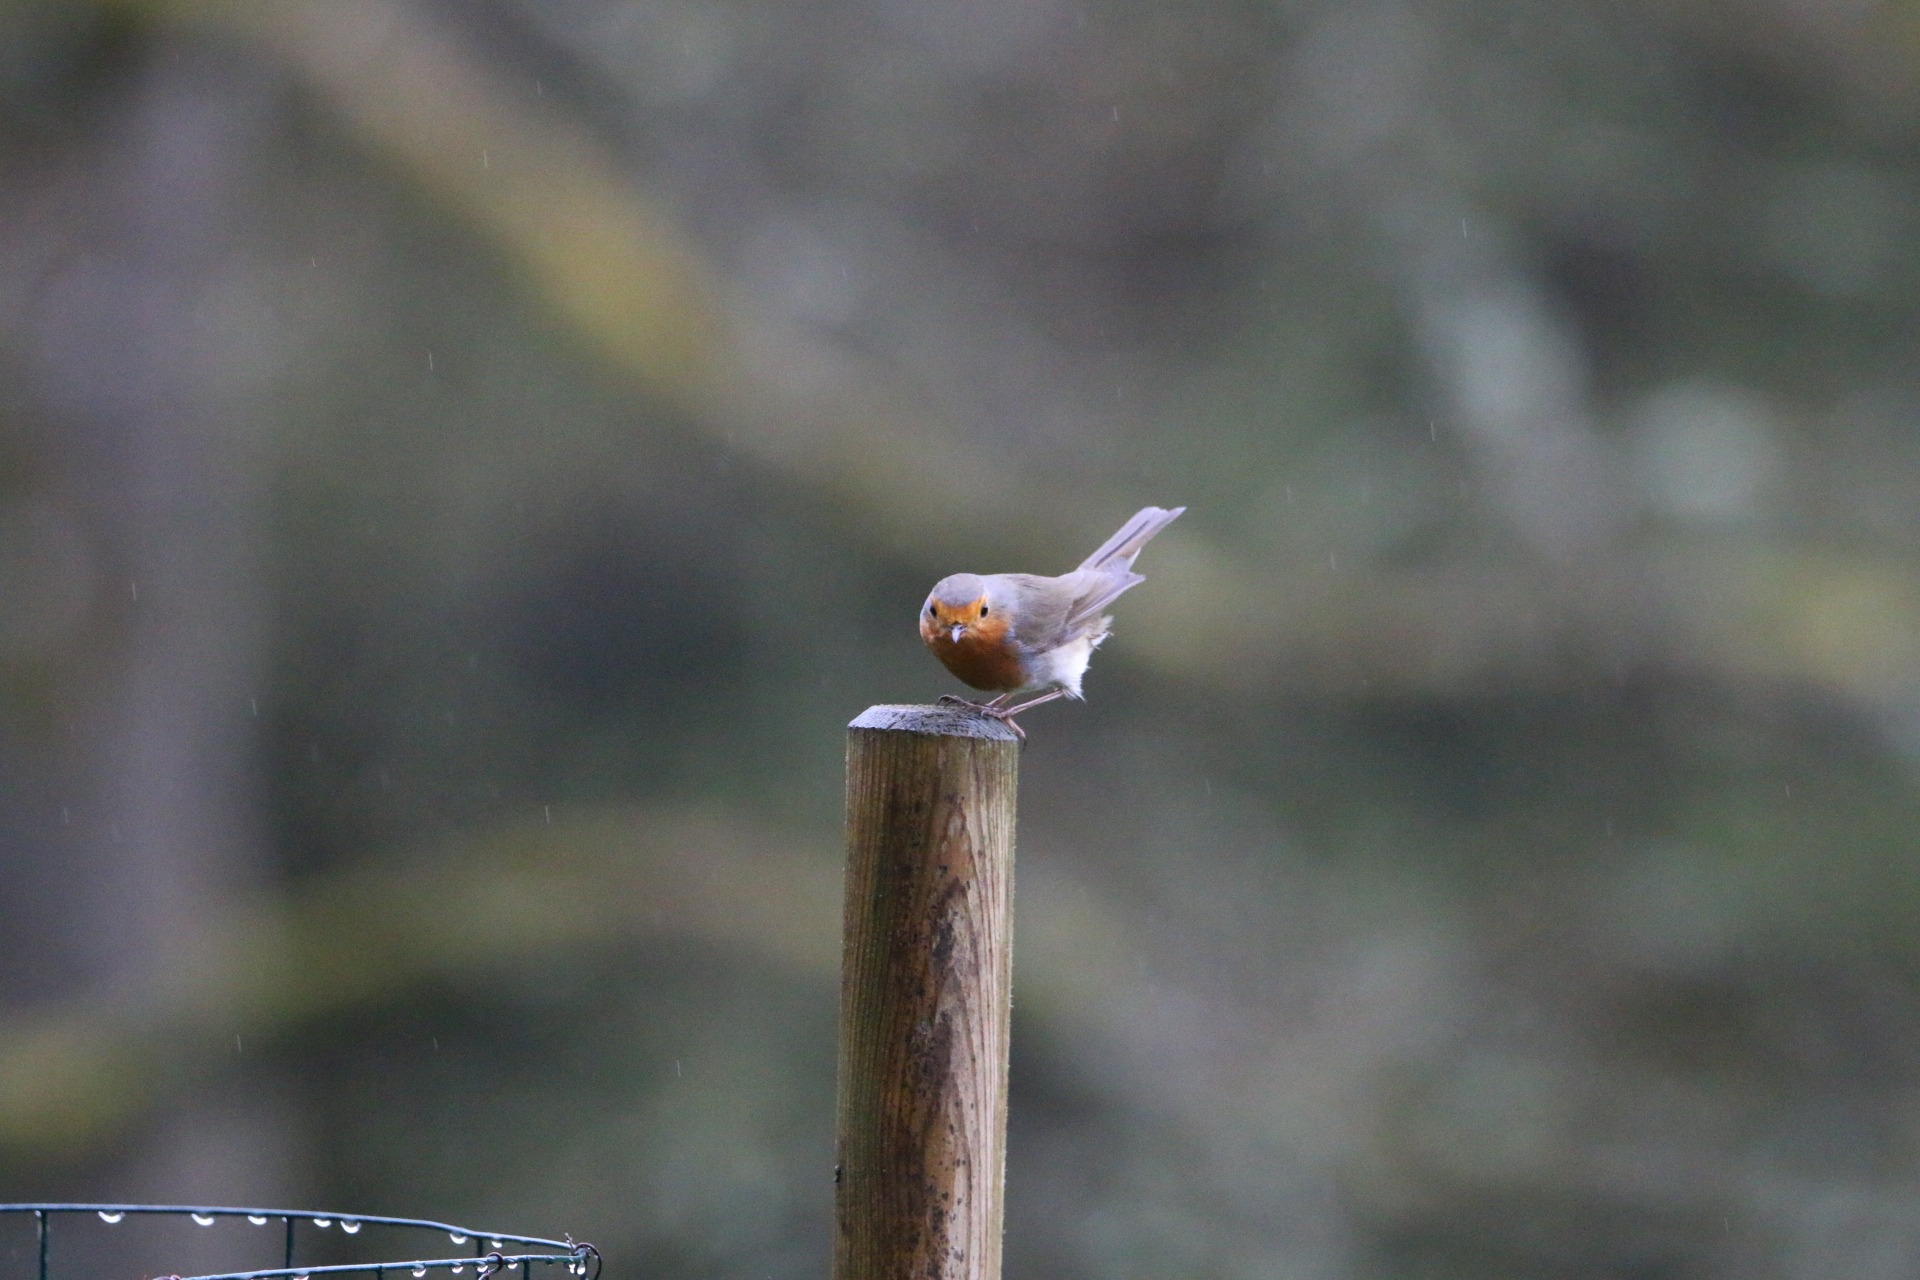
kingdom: Animalia
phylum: Chordata
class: Aves
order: Passeriformes
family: Muscicapidae
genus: Erithacus
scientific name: Erithacus rubecula
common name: Rødhals/rødkælk
